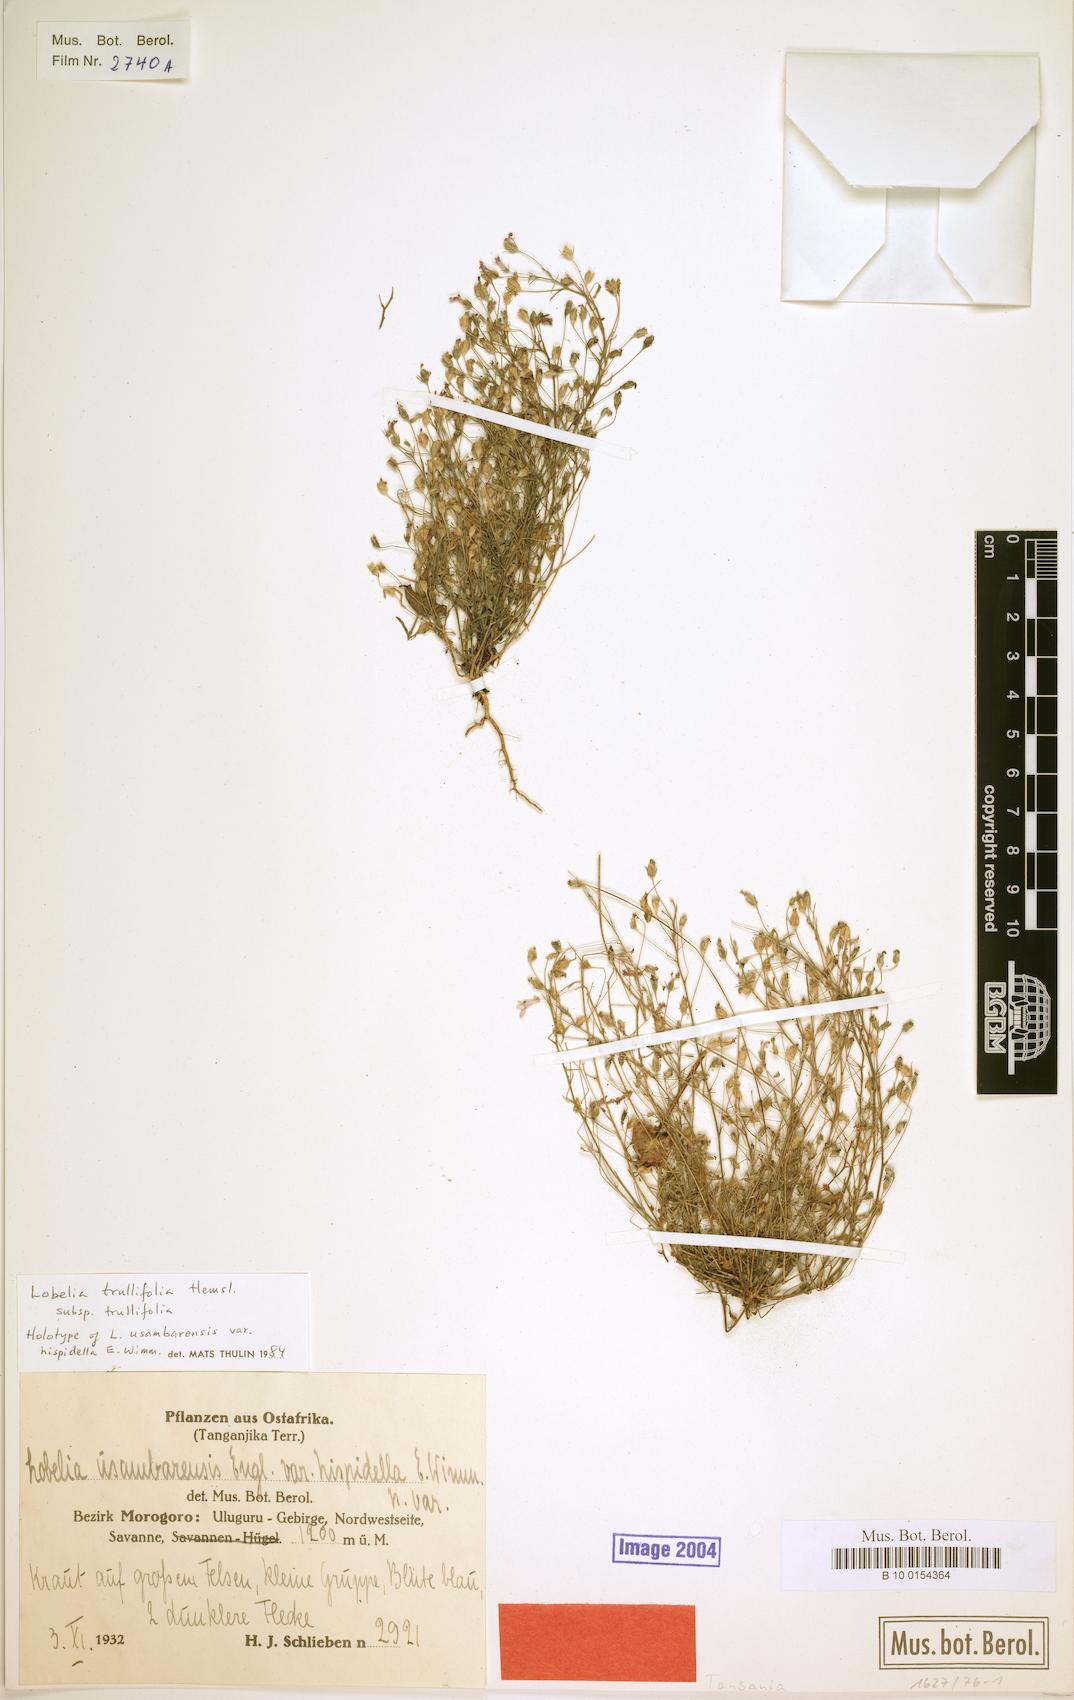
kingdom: Plantae
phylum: Tracheophyta
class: Magnoliopsida
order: Asterales
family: Campanulaceae
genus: Lobelia
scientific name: Lobelia trullifolia
